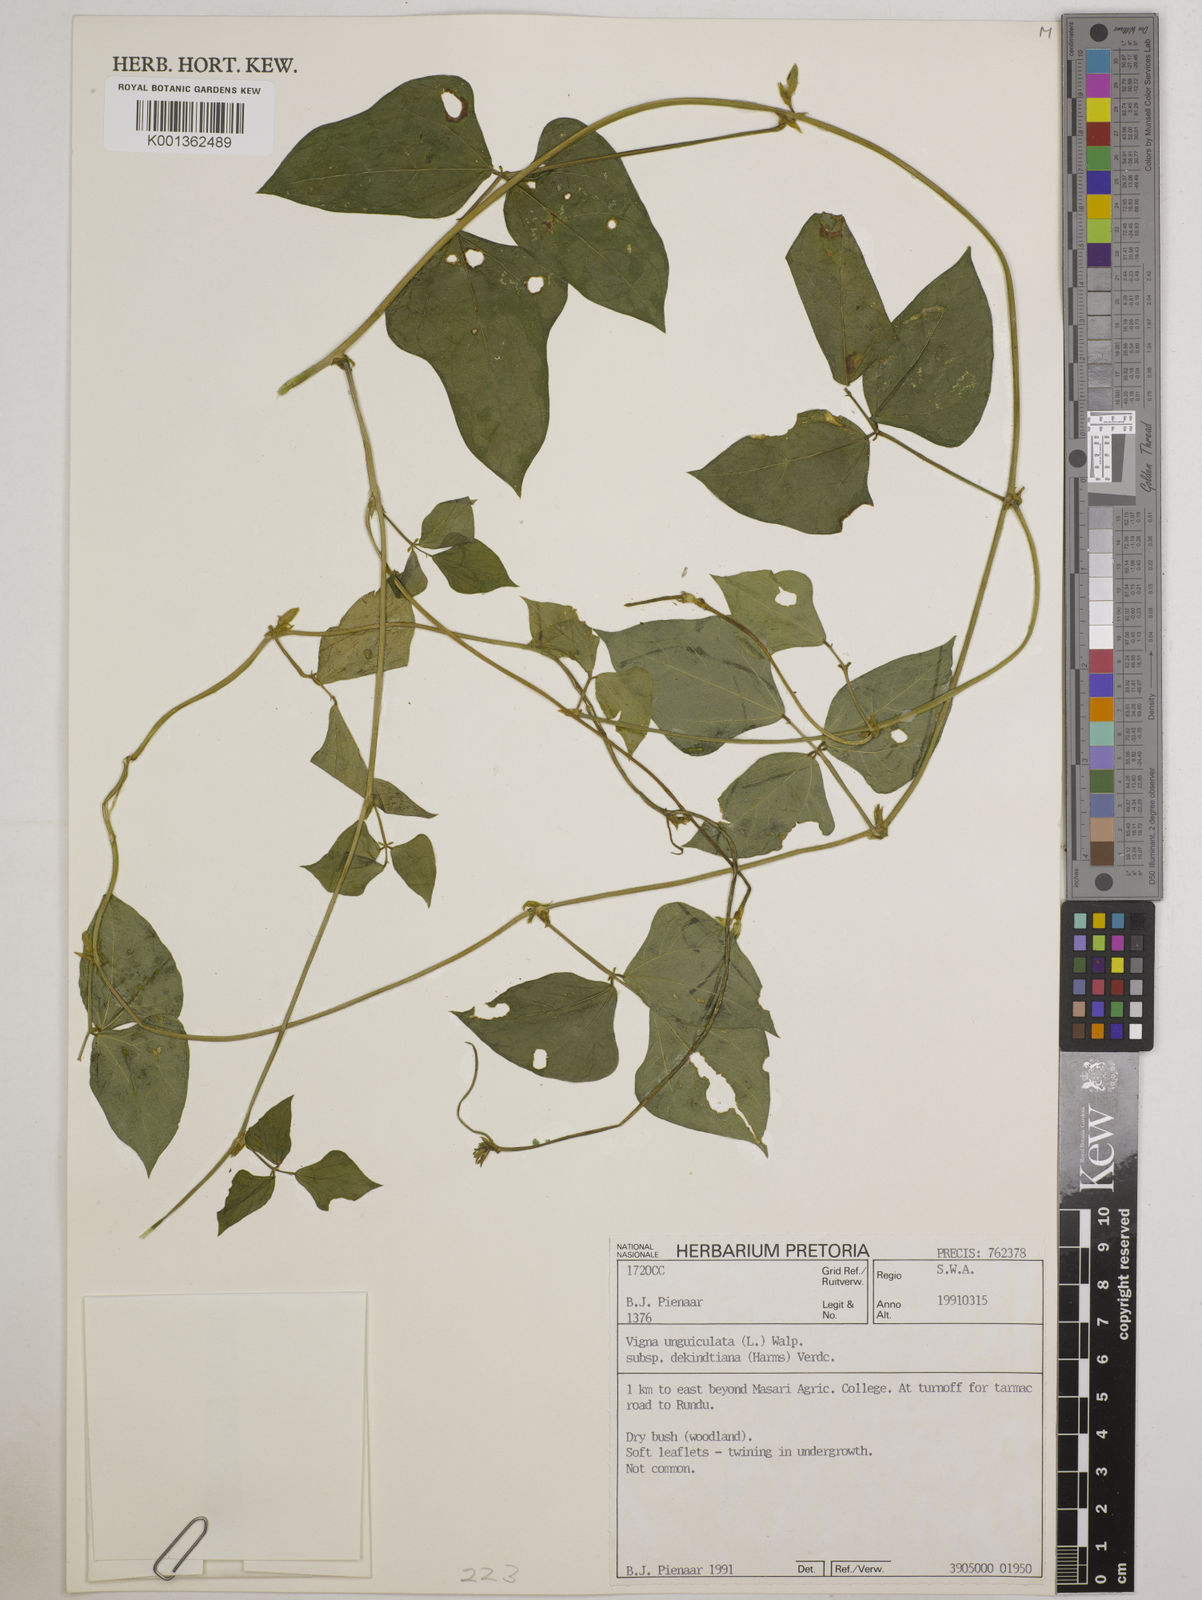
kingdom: Plantae
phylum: Tracheophyta
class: Magnoliopsida
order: Fabales
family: Fabaceae
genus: Vigna
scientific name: Vigna
